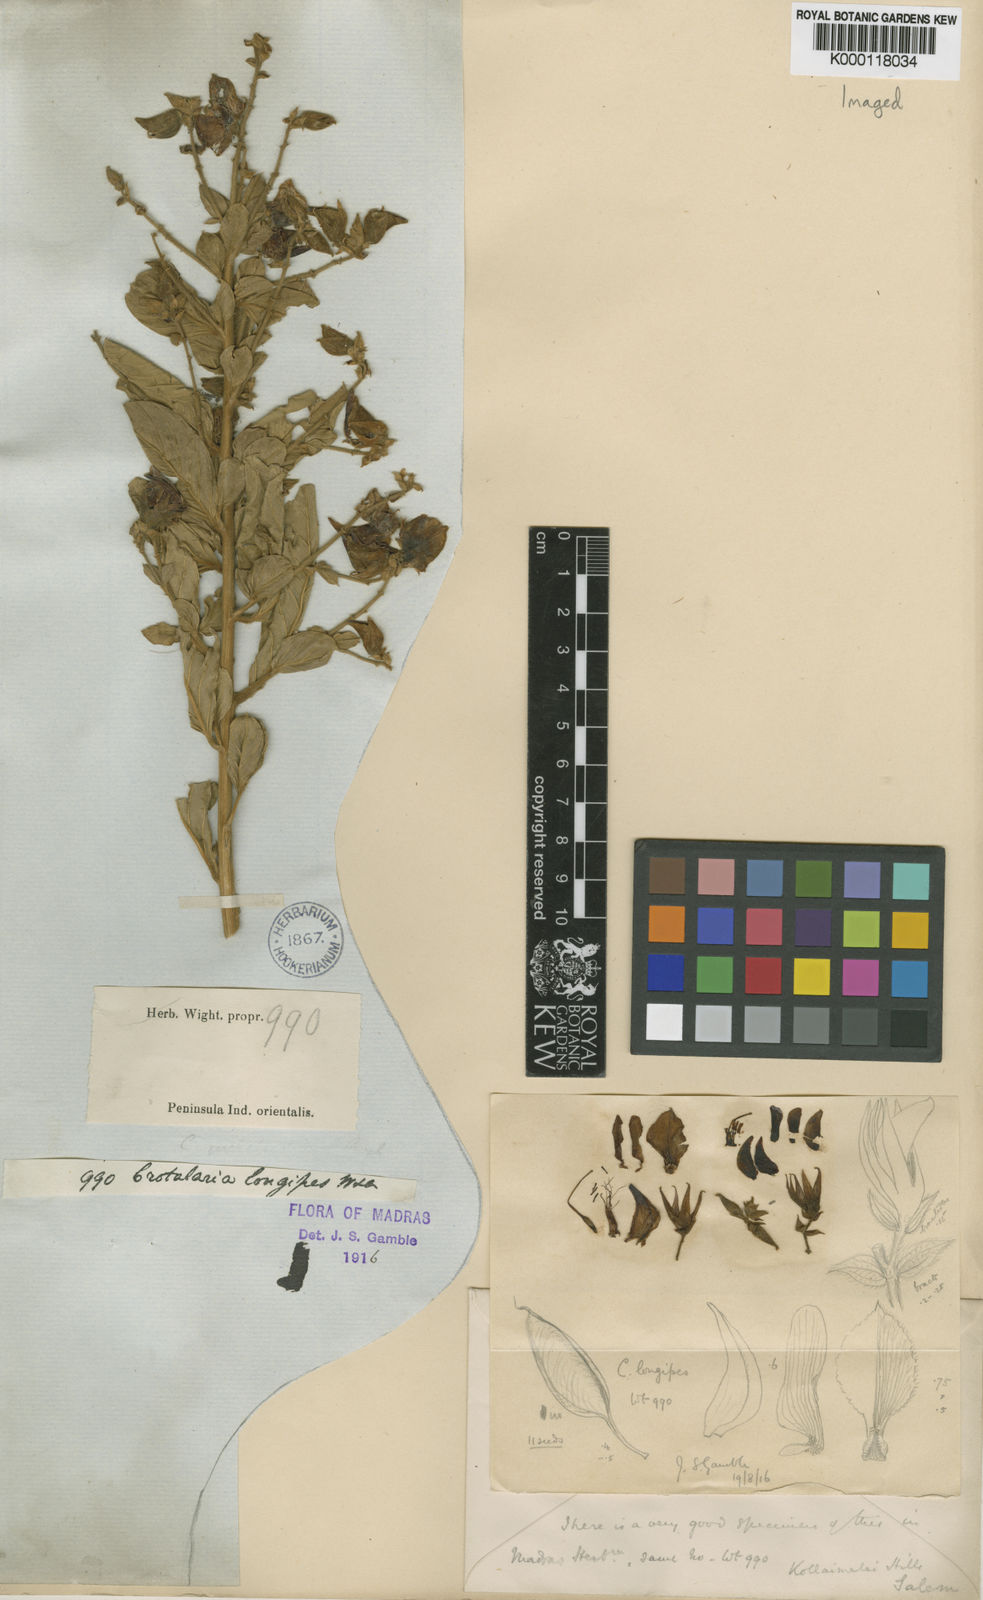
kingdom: Plantae
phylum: Tracheophyta
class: Magnoliopsida
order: Fabales
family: Fabaceae
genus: Crotalaria
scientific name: Crotalaria longipes
